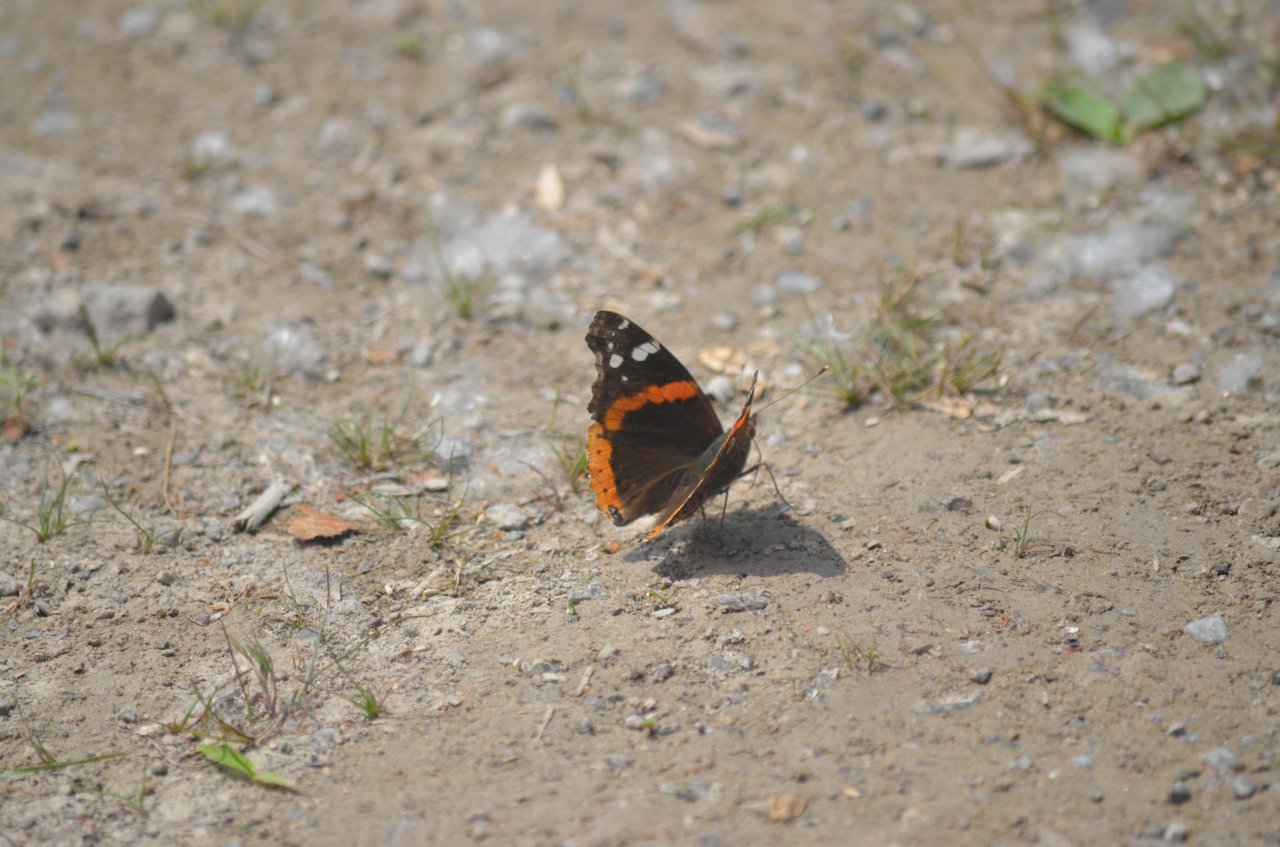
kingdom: Animalia
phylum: Arthropoda
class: Insecta
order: Lepidoptera
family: Nymphalidae
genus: Vanessa
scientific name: Vanessa atalanta
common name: Red Admiral
